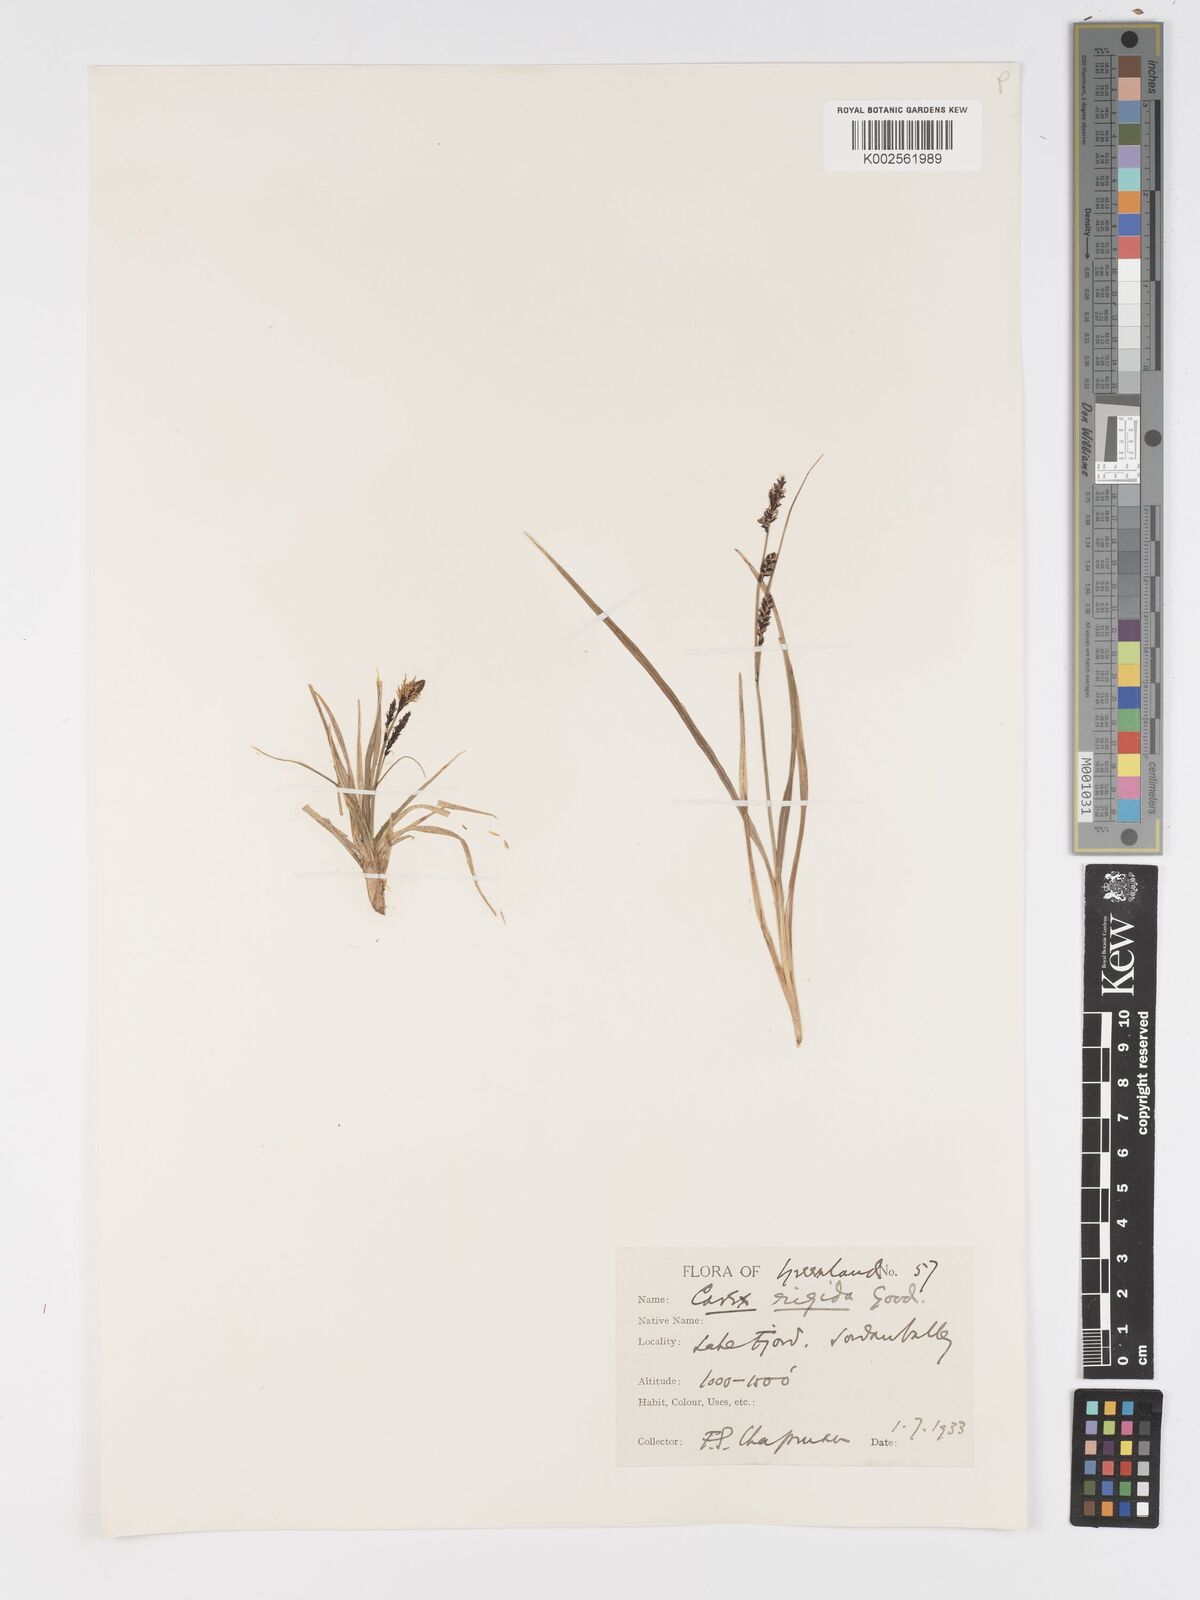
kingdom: Plantae
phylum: Tracheophyta
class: Liliopsida
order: Poales
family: Cyperaceae
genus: Carex
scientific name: Carex bigelowii
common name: Stiff sedge
